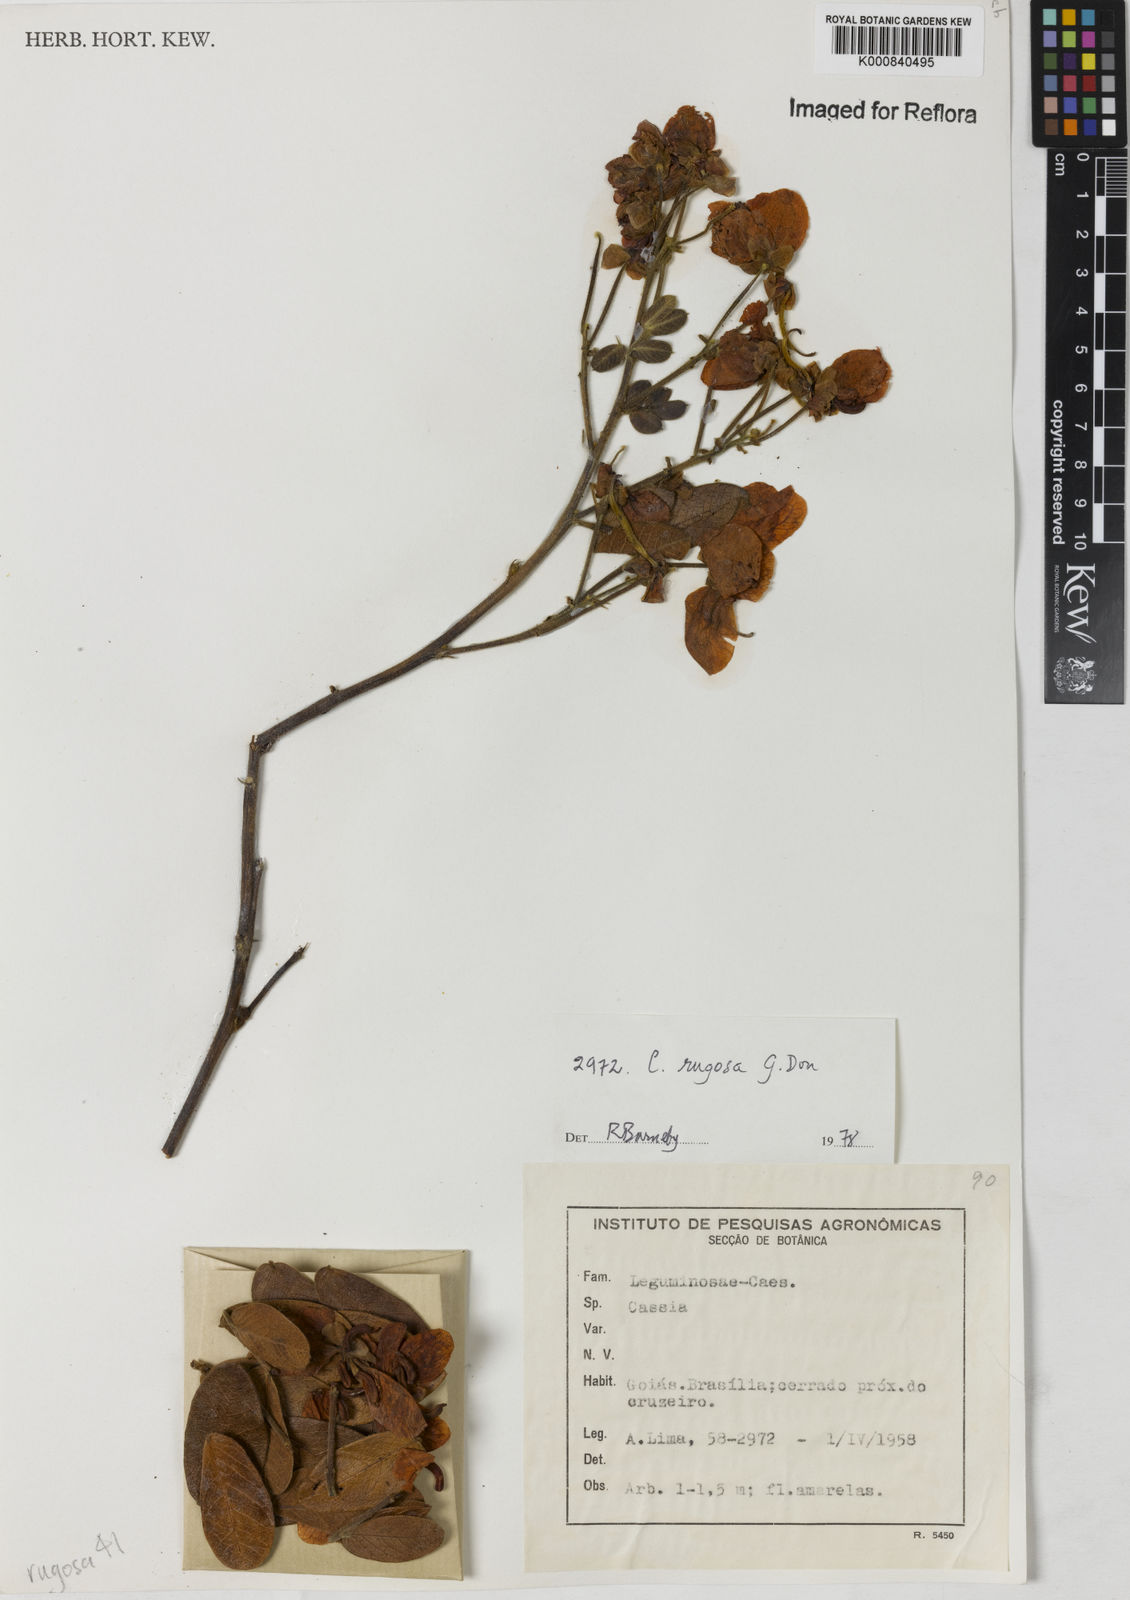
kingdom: Plantae
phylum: Tracheophyta
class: Magnoliopsida
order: Fabales
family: Fabaceae
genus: Senna
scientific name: Senna rugosa
